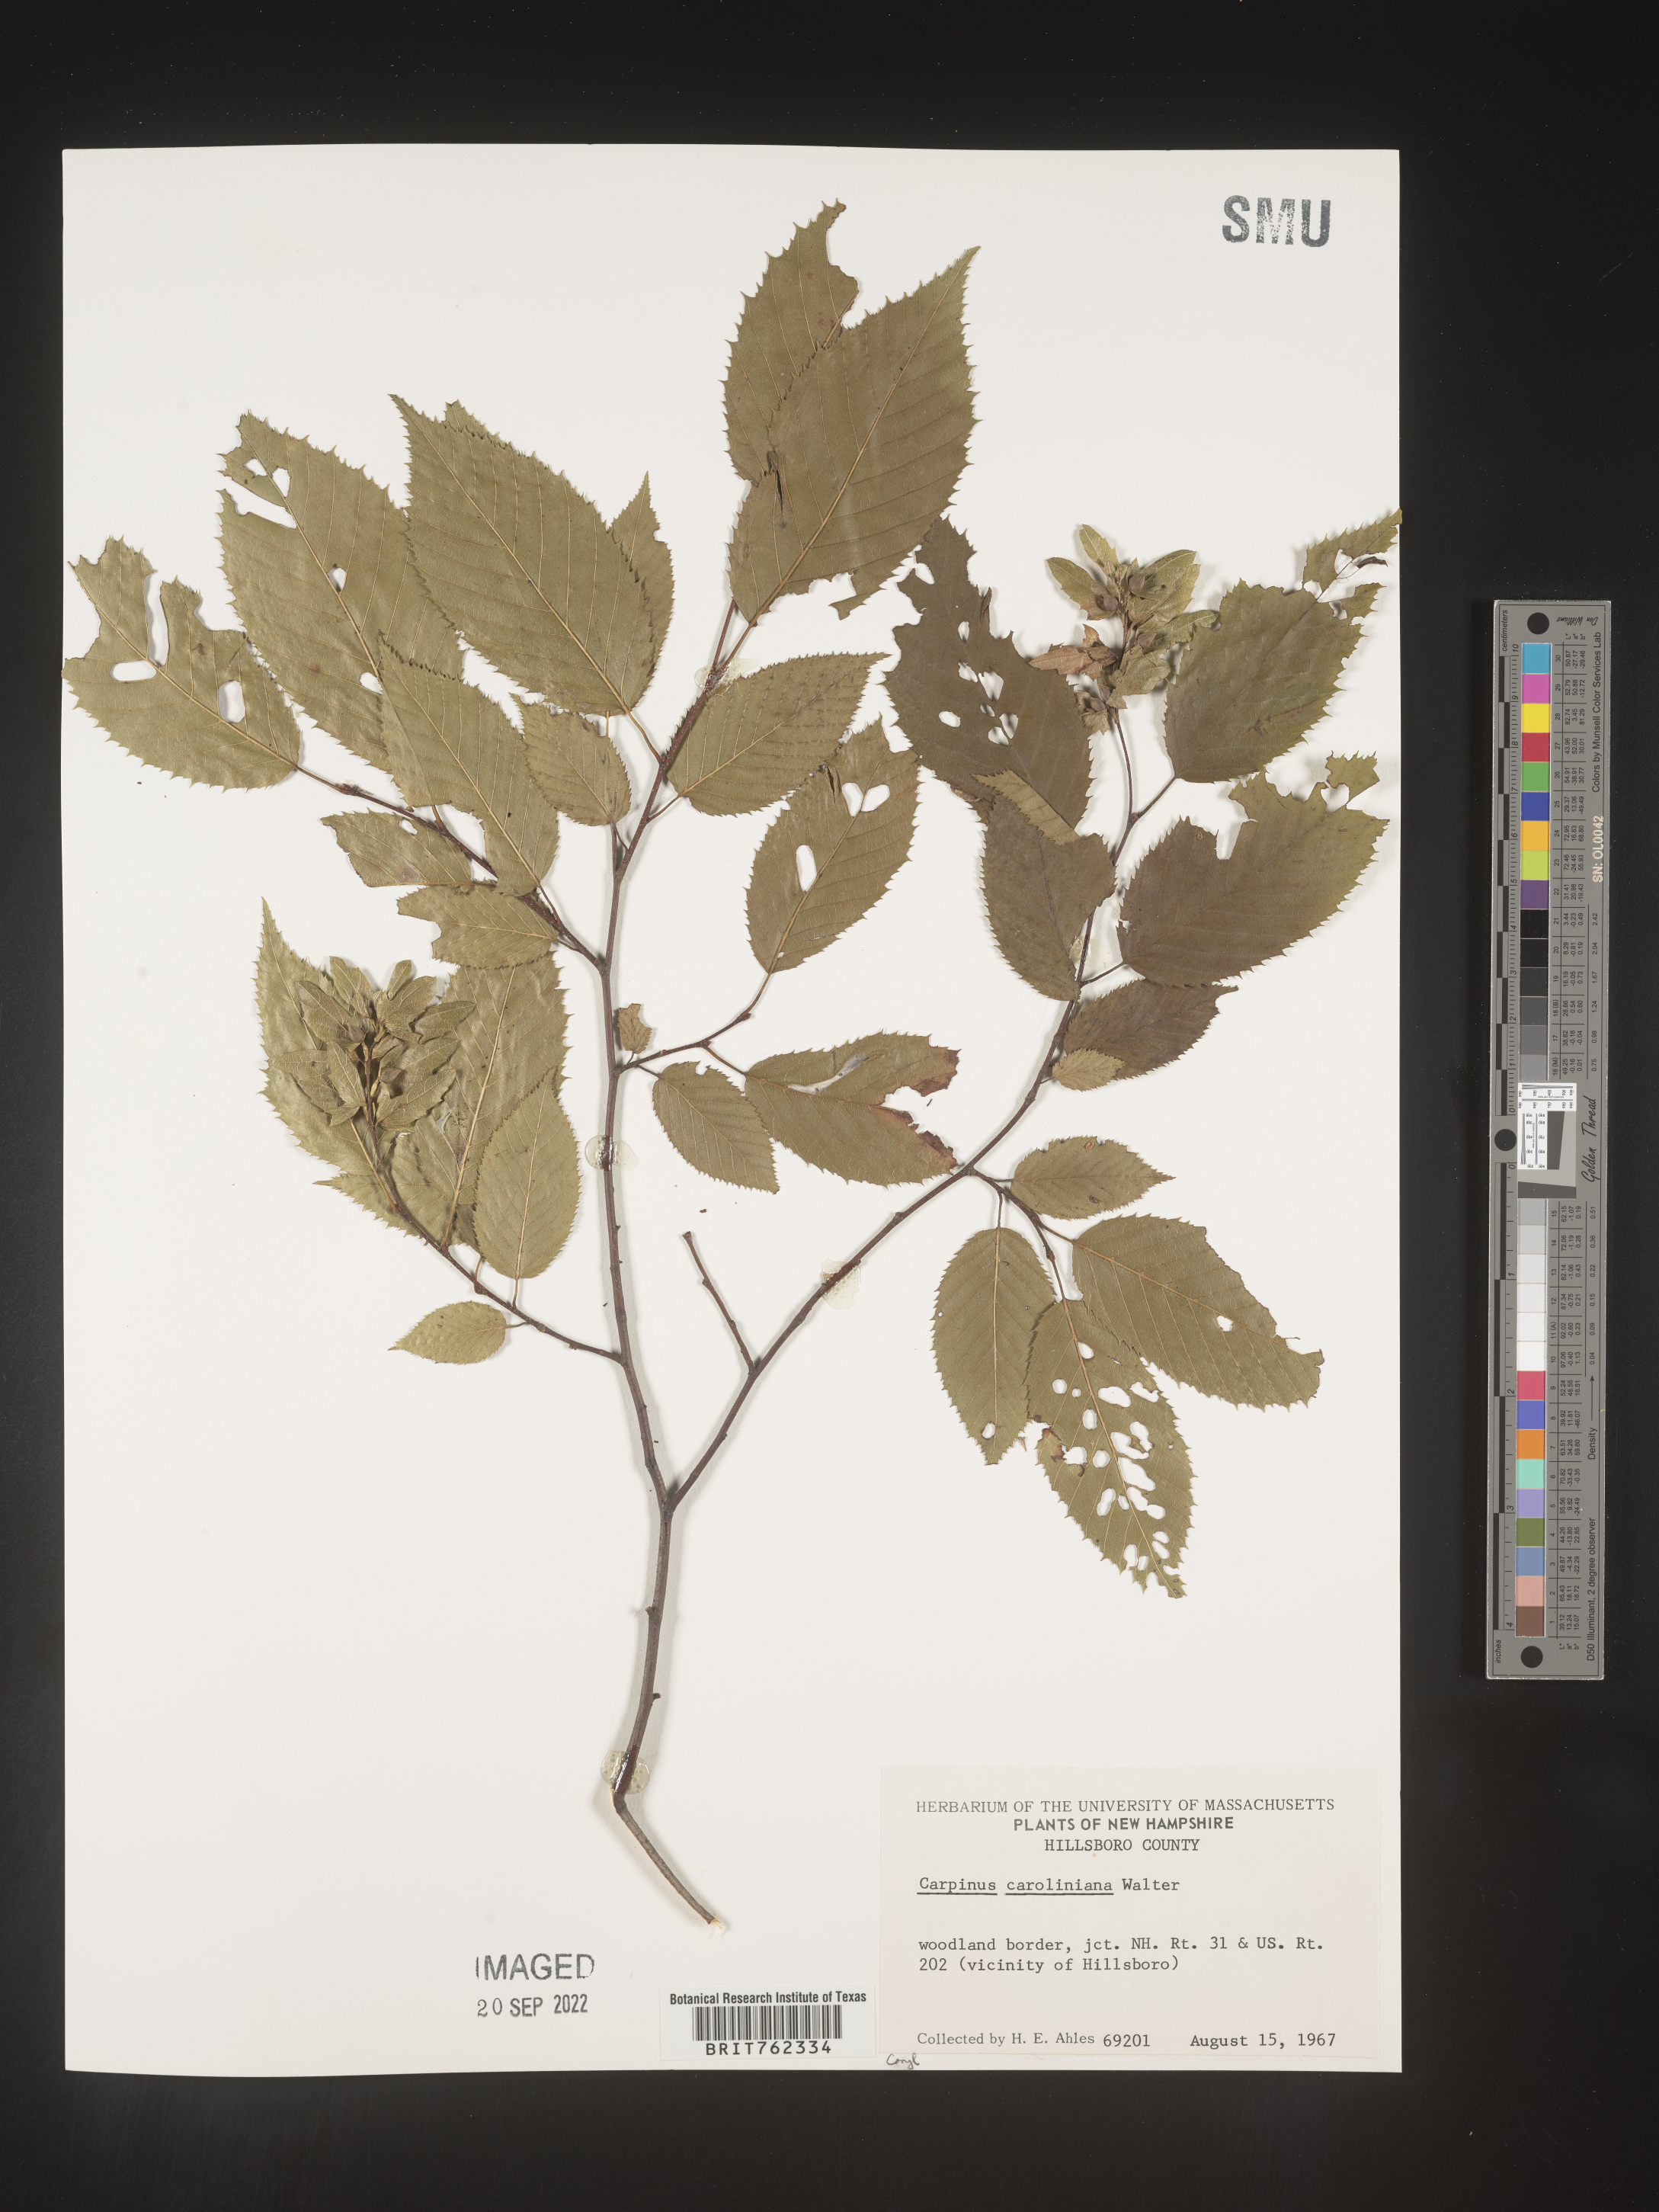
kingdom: Plantae
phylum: Tracheophyta
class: Magnoliopsida
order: Fagales
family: Betulaceae
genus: Carpinus
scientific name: Carpinus caroliniana
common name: American hornbeam
